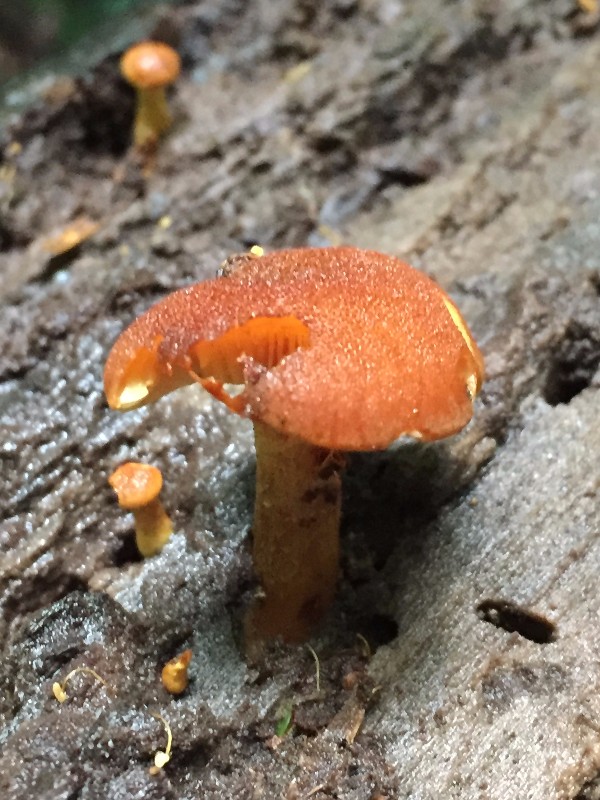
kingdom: Fungi
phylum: Basidiomycota
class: Agaricomycetes
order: Agaricales
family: Tubariaceae
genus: Flammulaster
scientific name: Flammulaster limulatus
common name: gylden grynskælhat
